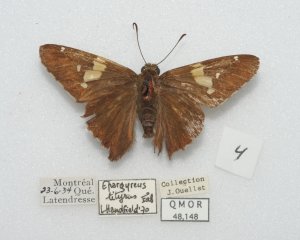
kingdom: Animalia
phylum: Arthropoda
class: Insecta
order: Lepidoptera
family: Hesperiidae
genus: Epargyreus
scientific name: Epargyreus clarus
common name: Silver-spotted Skipper
